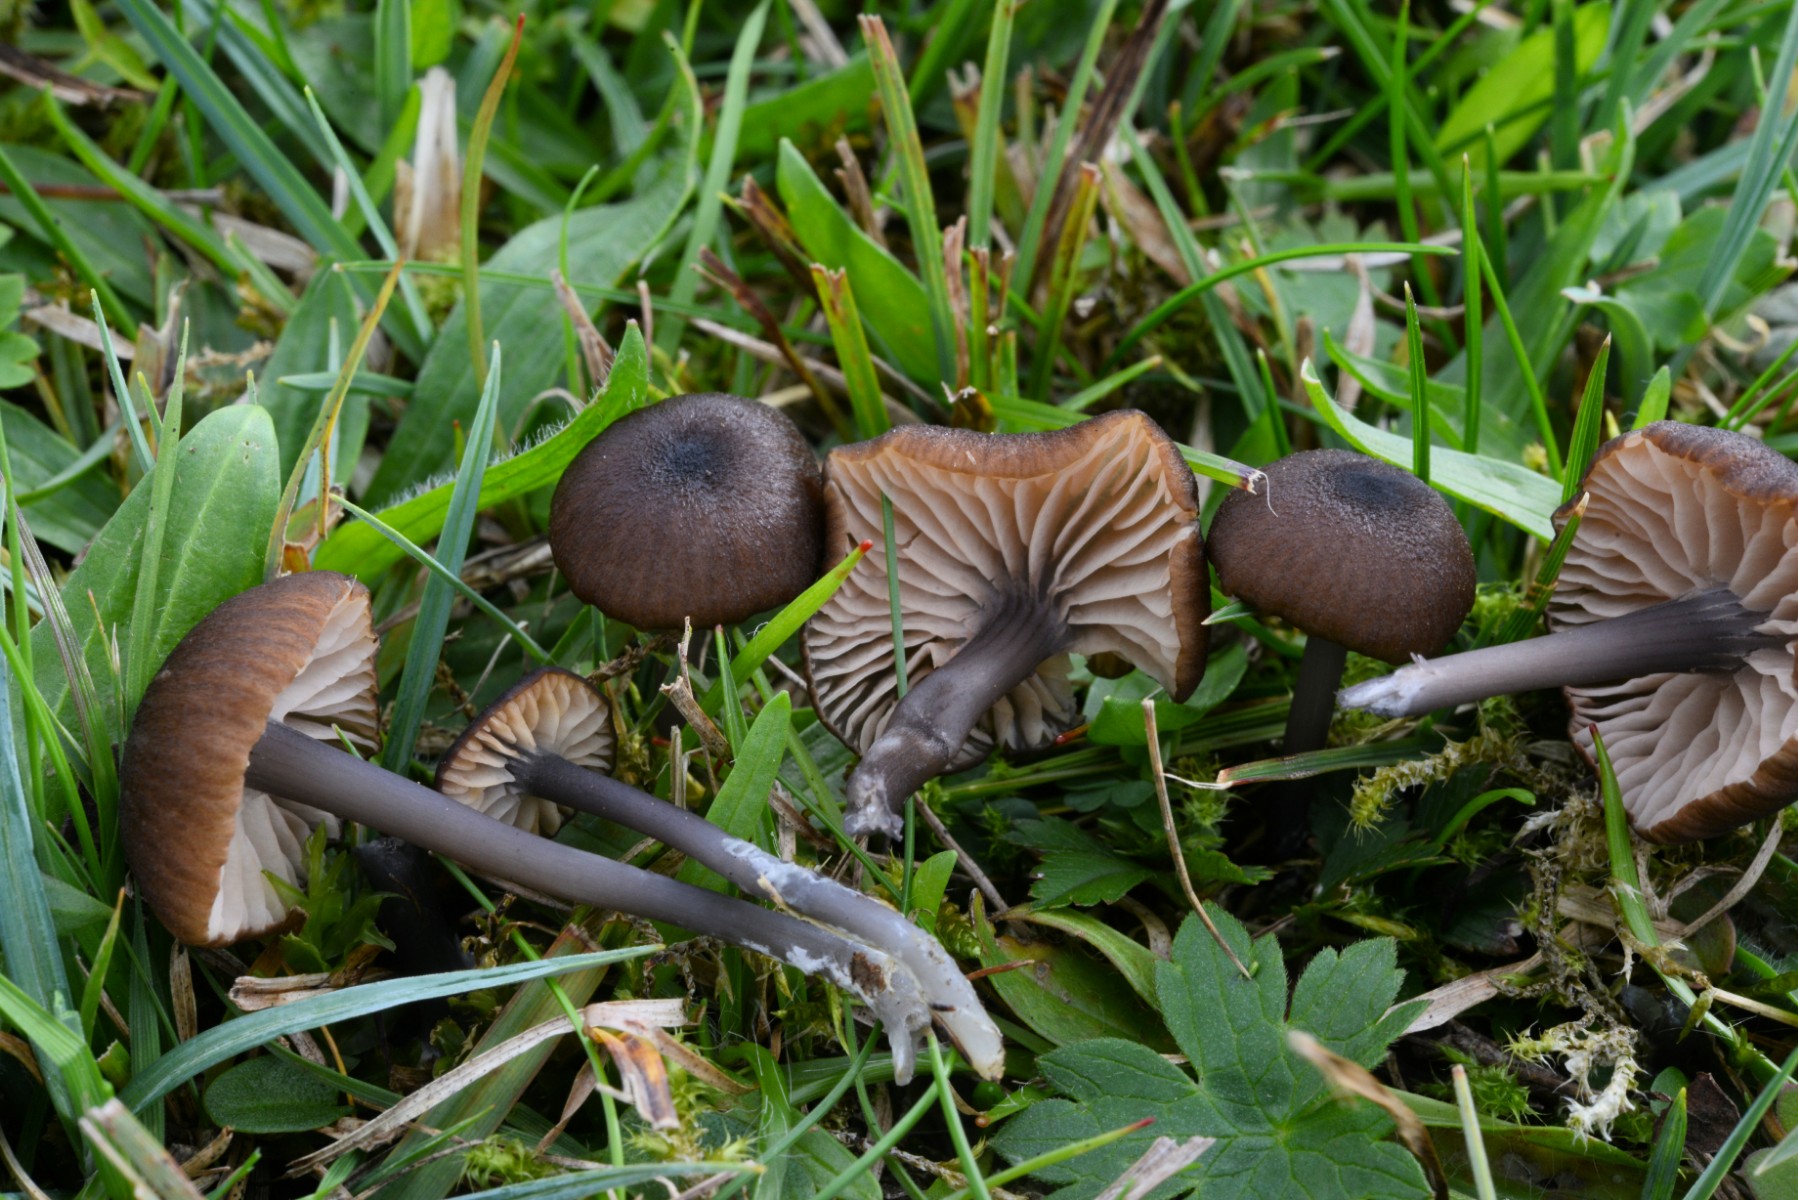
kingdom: Fungi
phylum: Basidiomycota
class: Agaricomycetes
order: Agaricales
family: Entolomataceae
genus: Entoloma
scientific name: Entoloma asprellum
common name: ru rødblad
